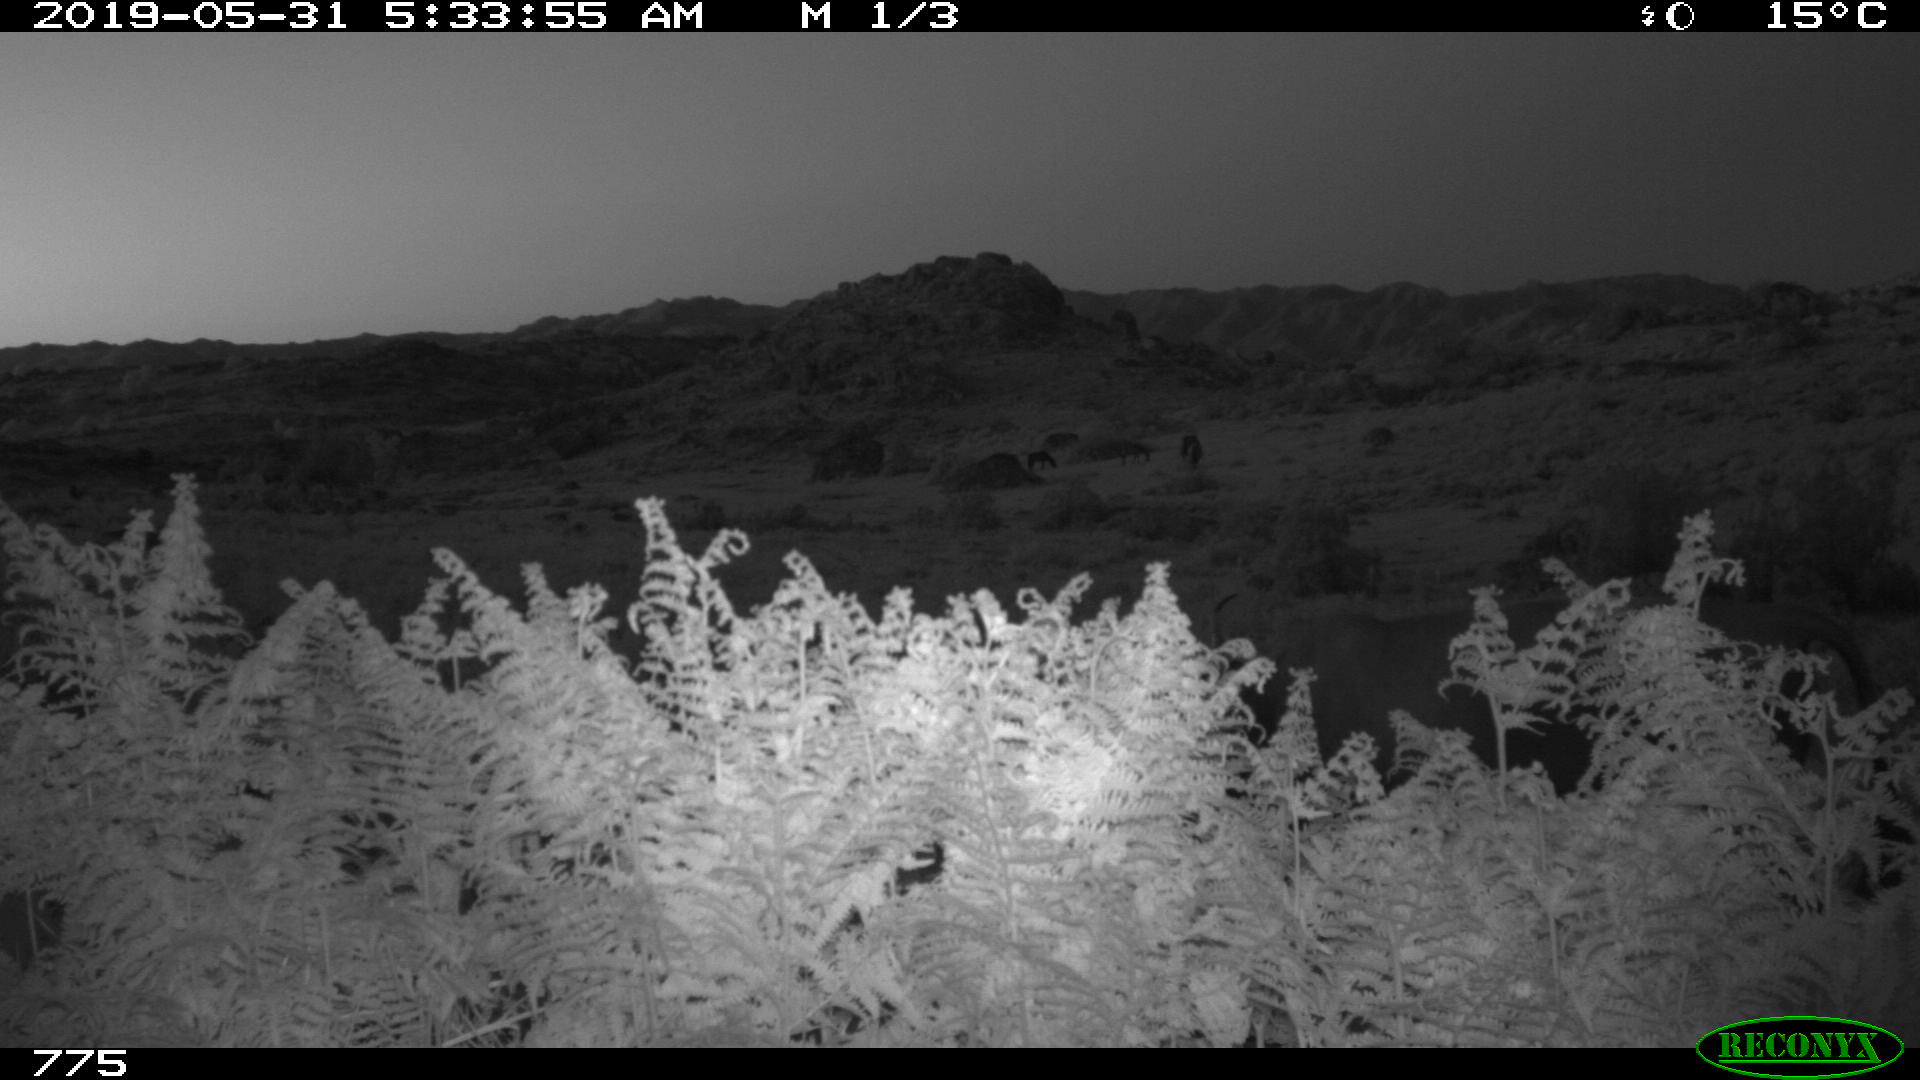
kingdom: Animalia
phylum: Chordata
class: Mammalia
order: Artiodactyla
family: Bovidae
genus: Bos
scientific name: Bos taurus
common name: Domesticated cattle
